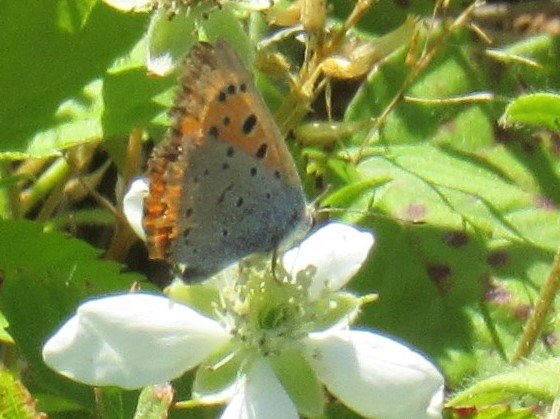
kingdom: Animalia
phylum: Arthropoda
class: Insecta
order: Lepidoptera
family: Lycaenidae
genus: Lycaena
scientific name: Lycaena phlaeas
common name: American Copper
